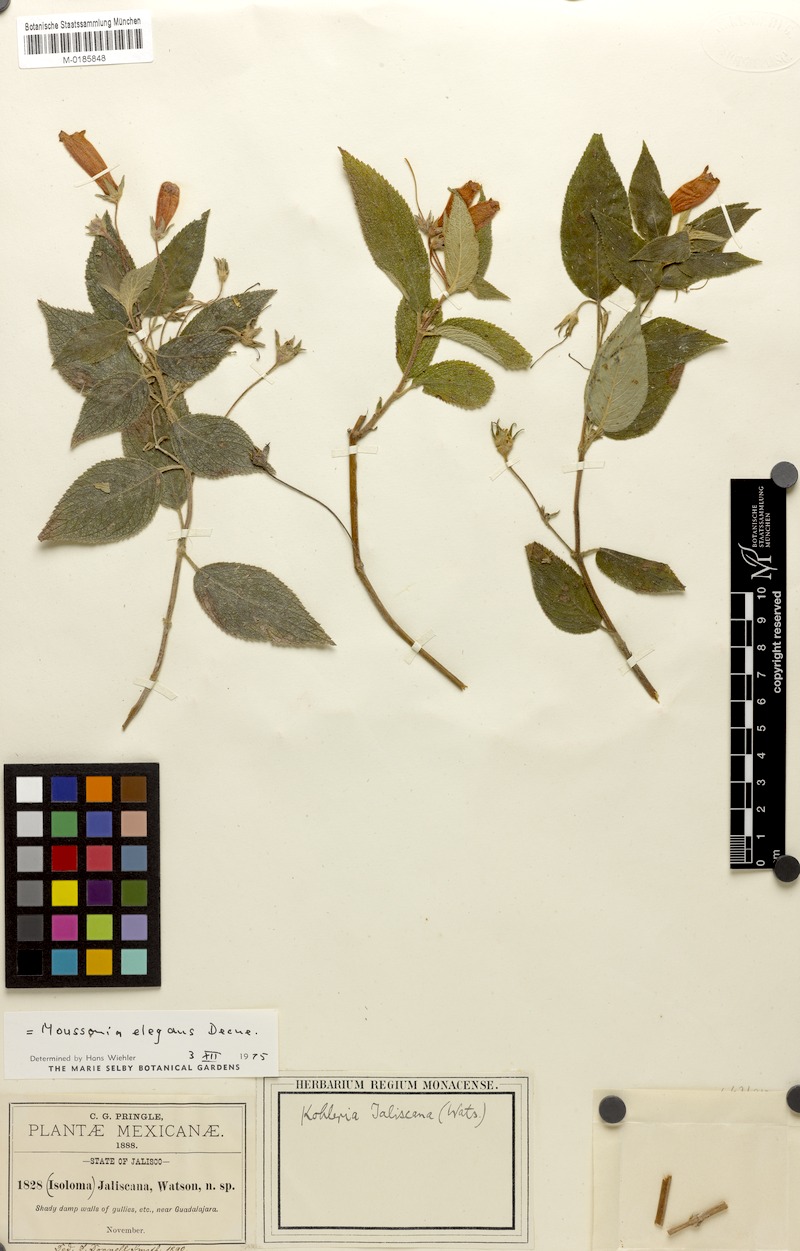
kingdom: Plantae
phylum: Tracheophyta
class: Magnoliopsida
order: Lamiales
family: Gesneriaceae
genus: Moussonia
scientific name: Moussonia elegans
